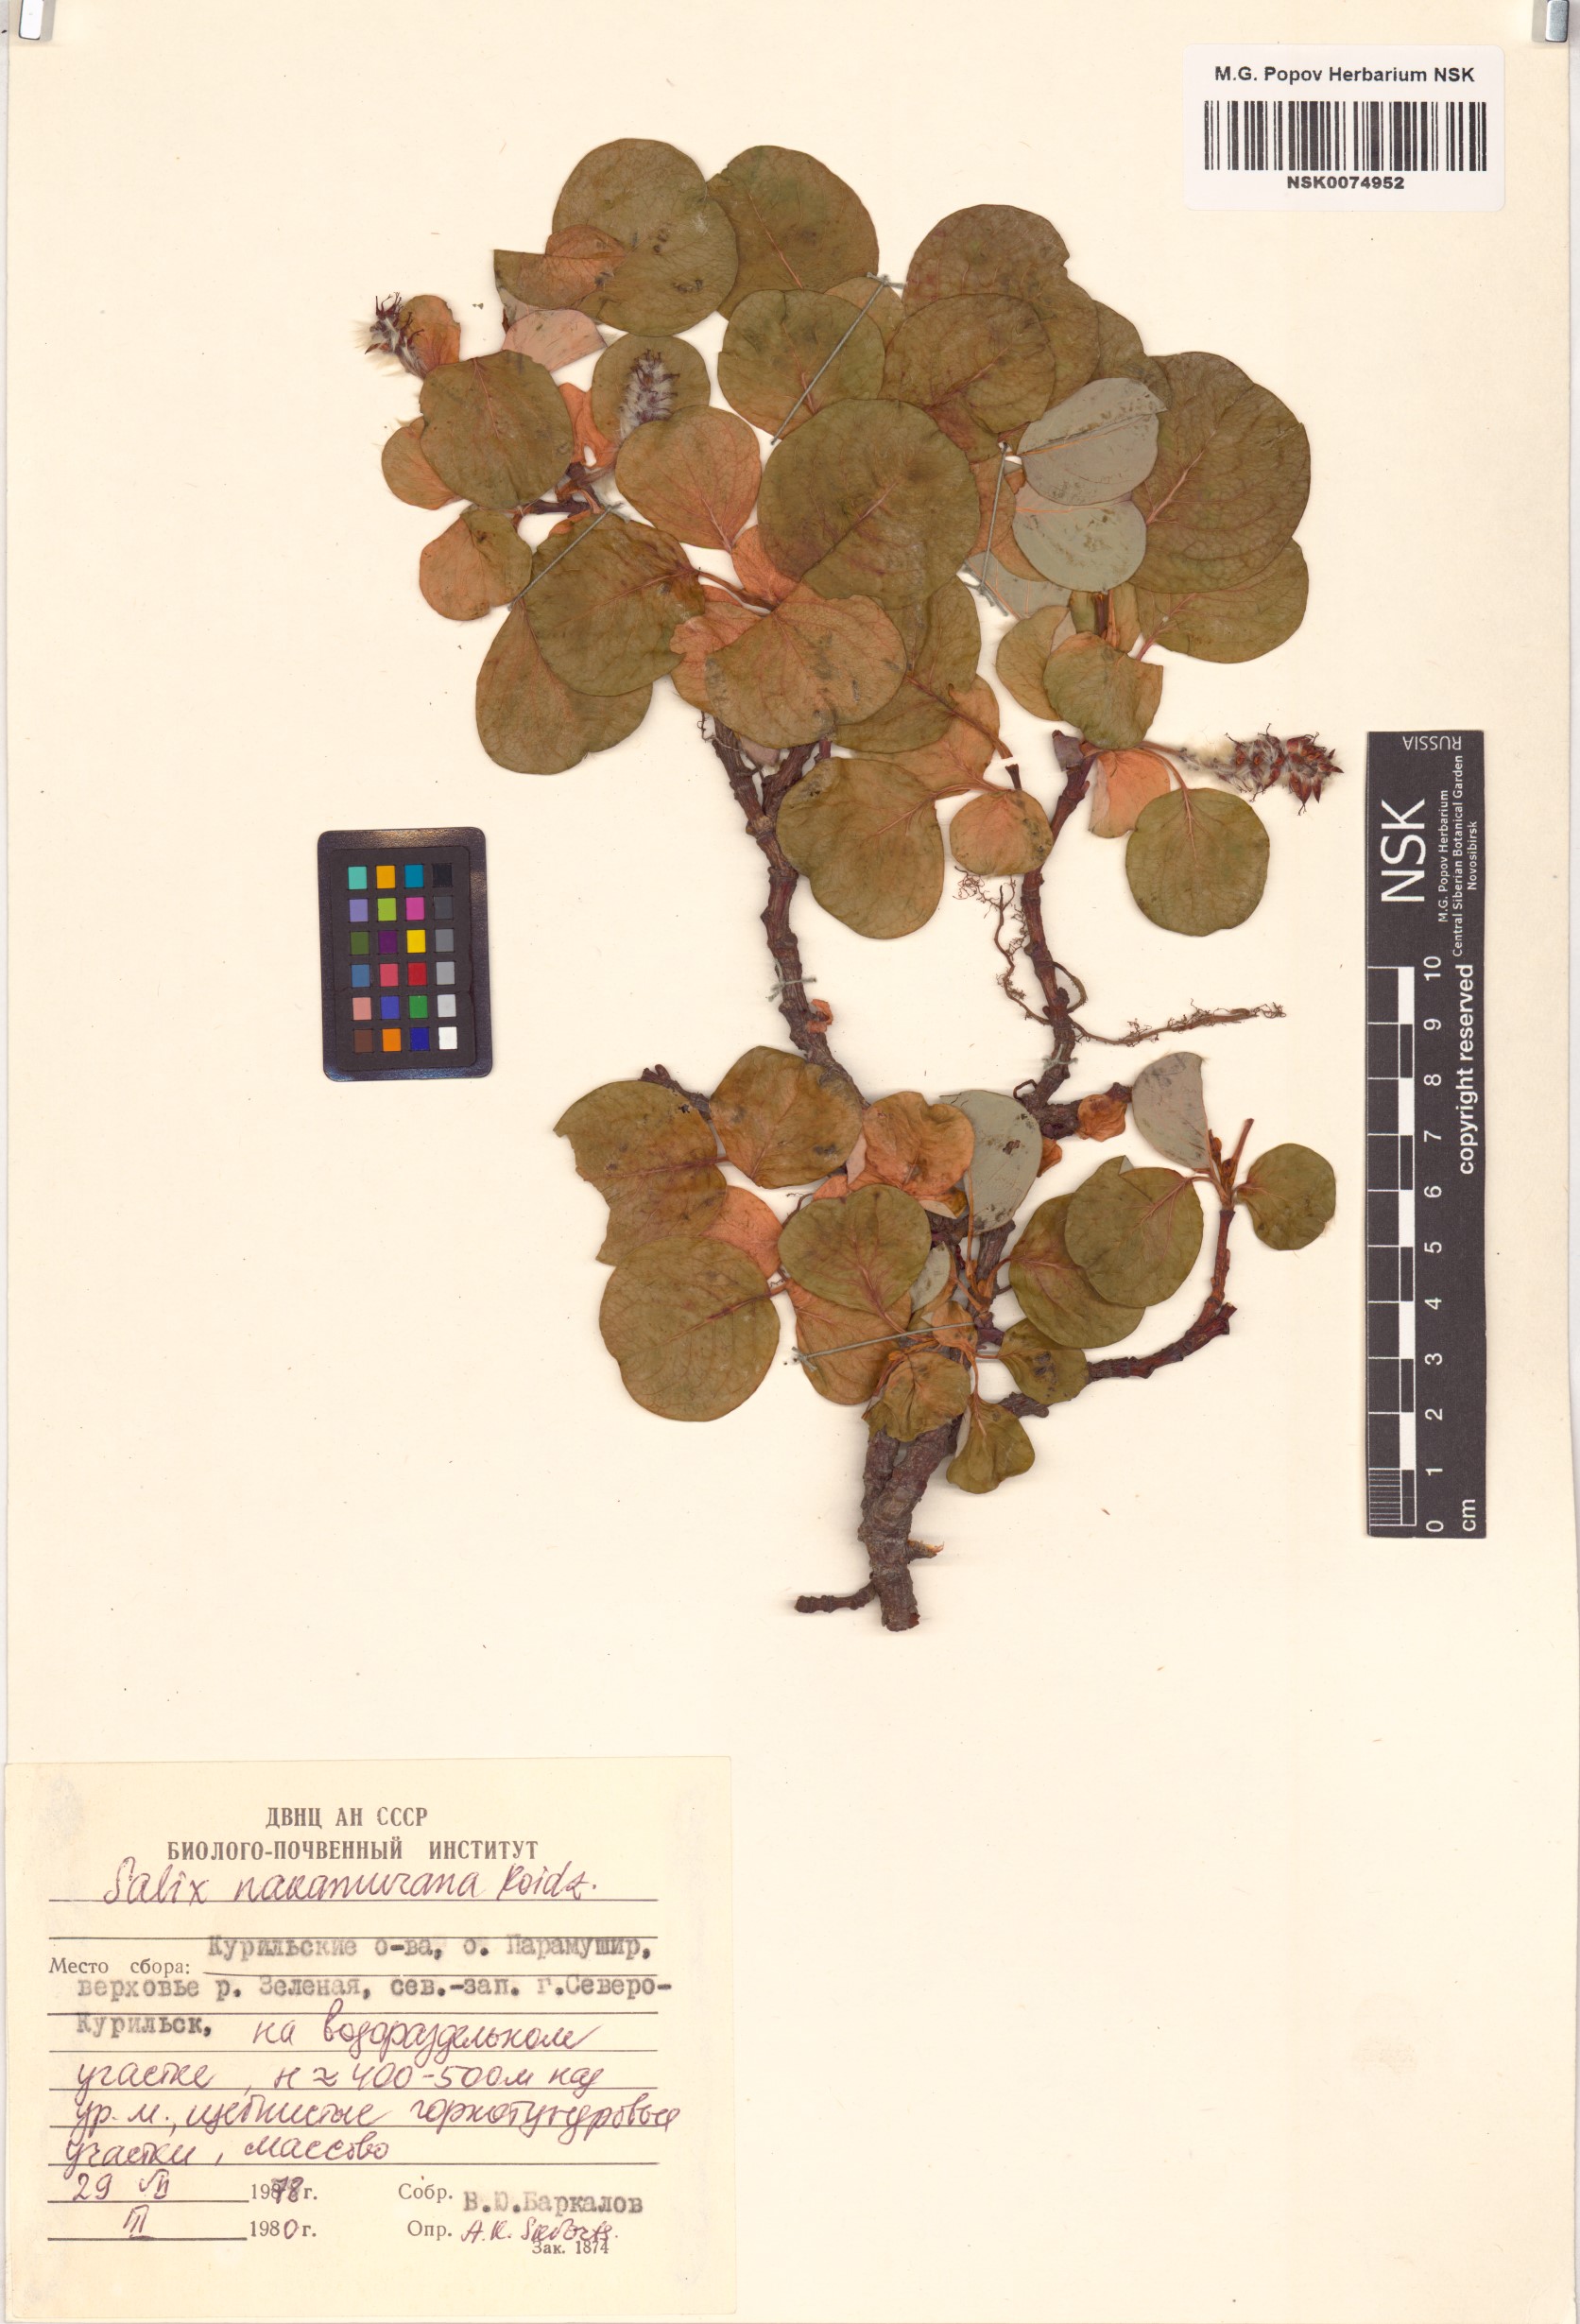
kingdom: Plantae
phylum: Tracheophyta
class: Magnoliopsida
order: Malpighiales
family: Salicaceae
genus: Salix
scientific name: Salix nakamurana
